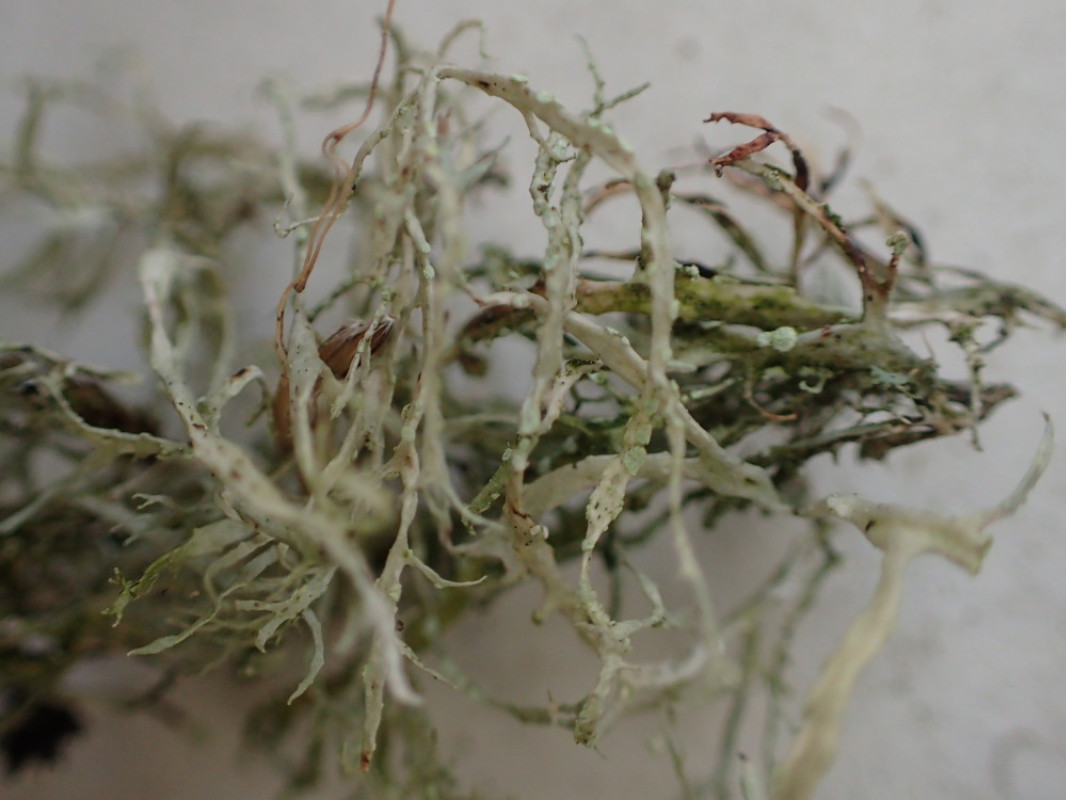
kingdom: Fungi
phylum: Ascomycota
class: Lecanoromycetes
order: Lecanorales
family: Ramalinaceae
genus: Ramalina
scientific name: Ramalina farinacea
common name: melet grenlav
